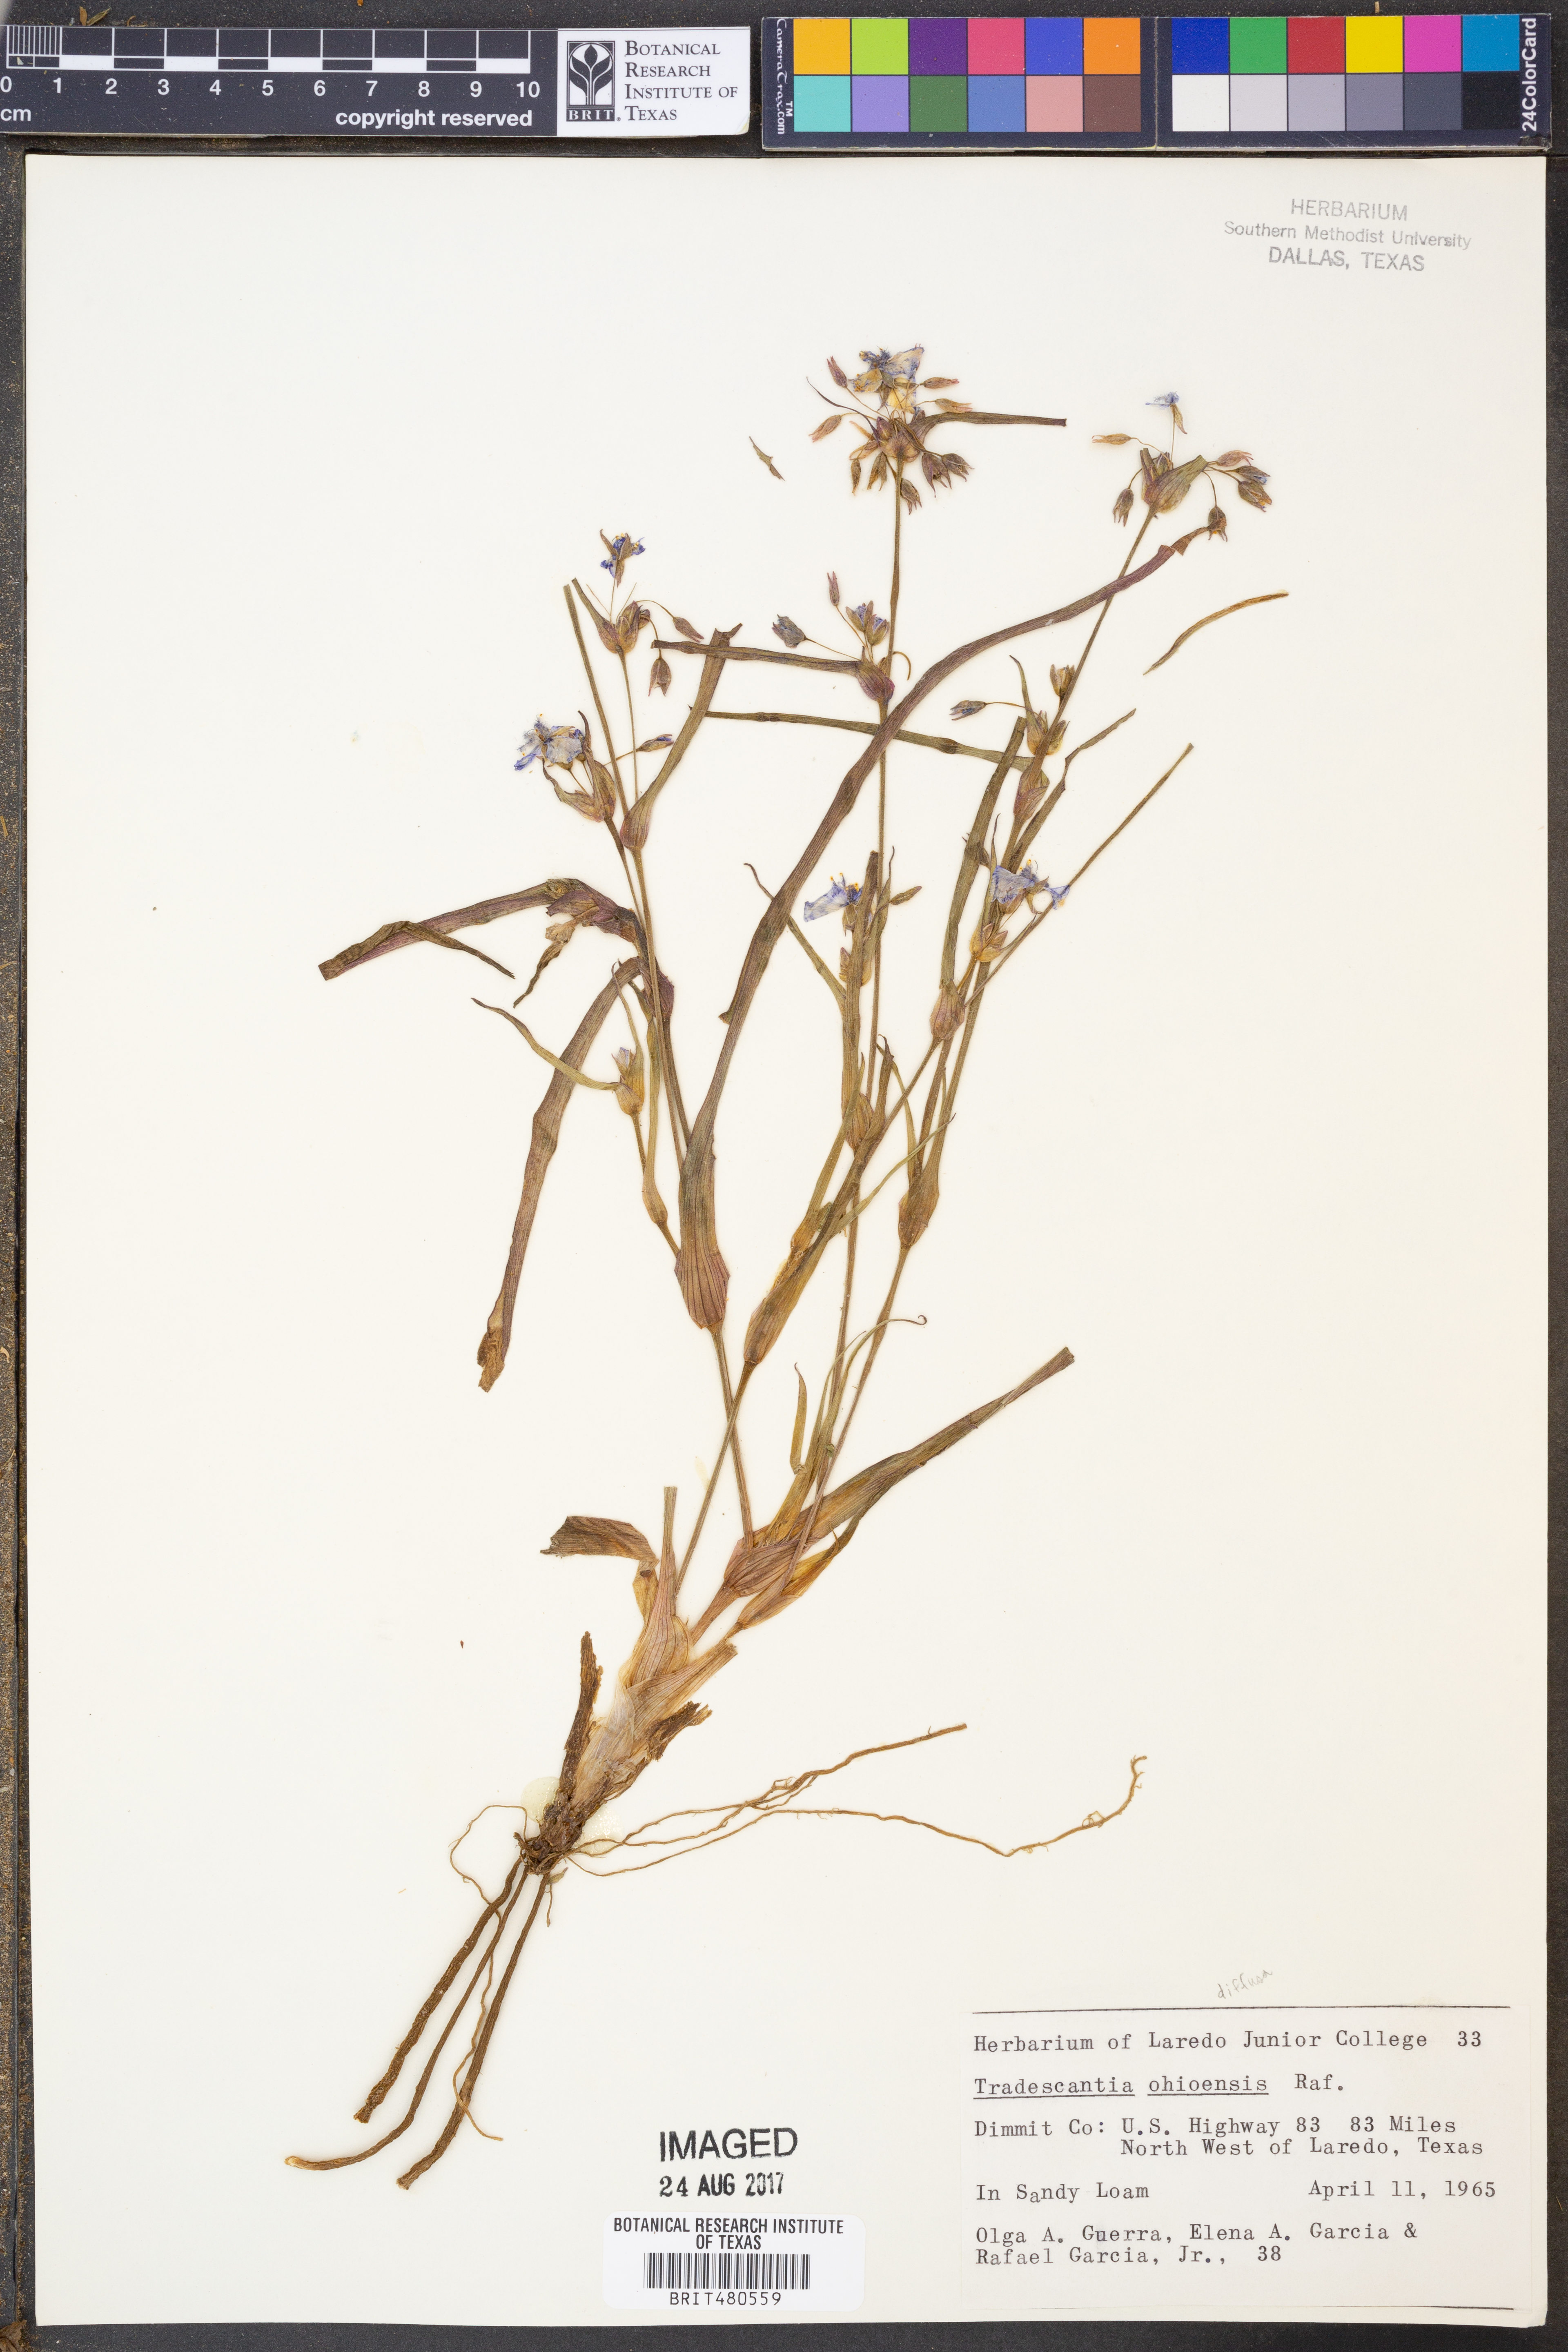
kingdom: Plantae
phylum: Tracheophyta
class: Liliopsida
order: Commelinales
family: Commelinaceae
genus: Tradescantia
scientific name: Tradescantia ohiensis
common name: Ohio spiderwort
